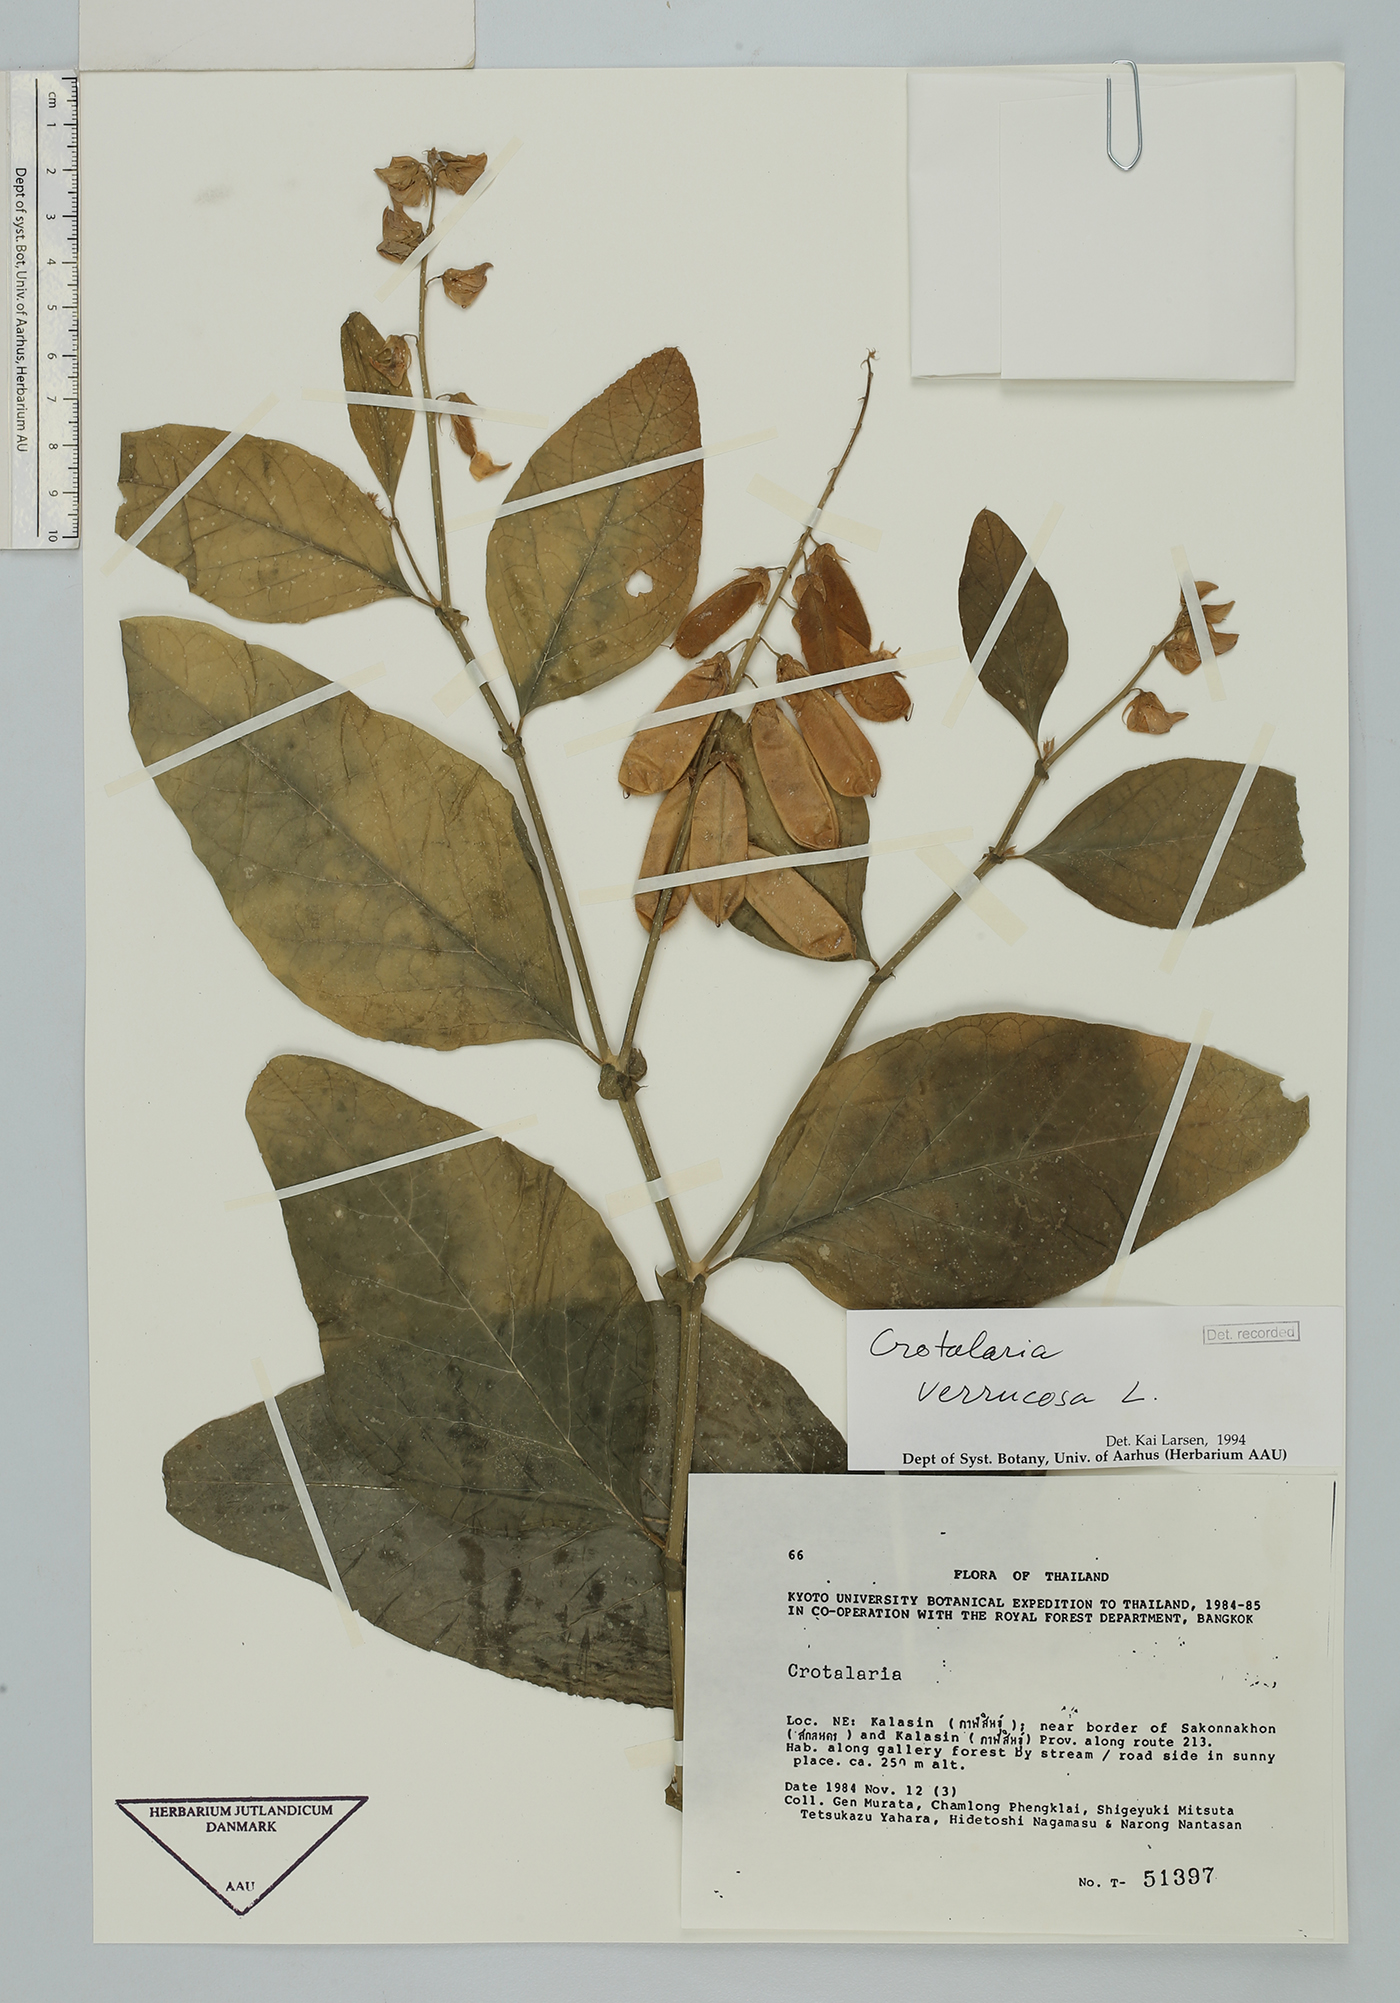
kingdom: Plantae
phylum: Tracheophyta
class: Magnoliopsida
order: Fabales
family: Fabaceae
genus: Crotalaria
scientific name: Crotalaria verrucosa
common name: Blue rattlesnake
